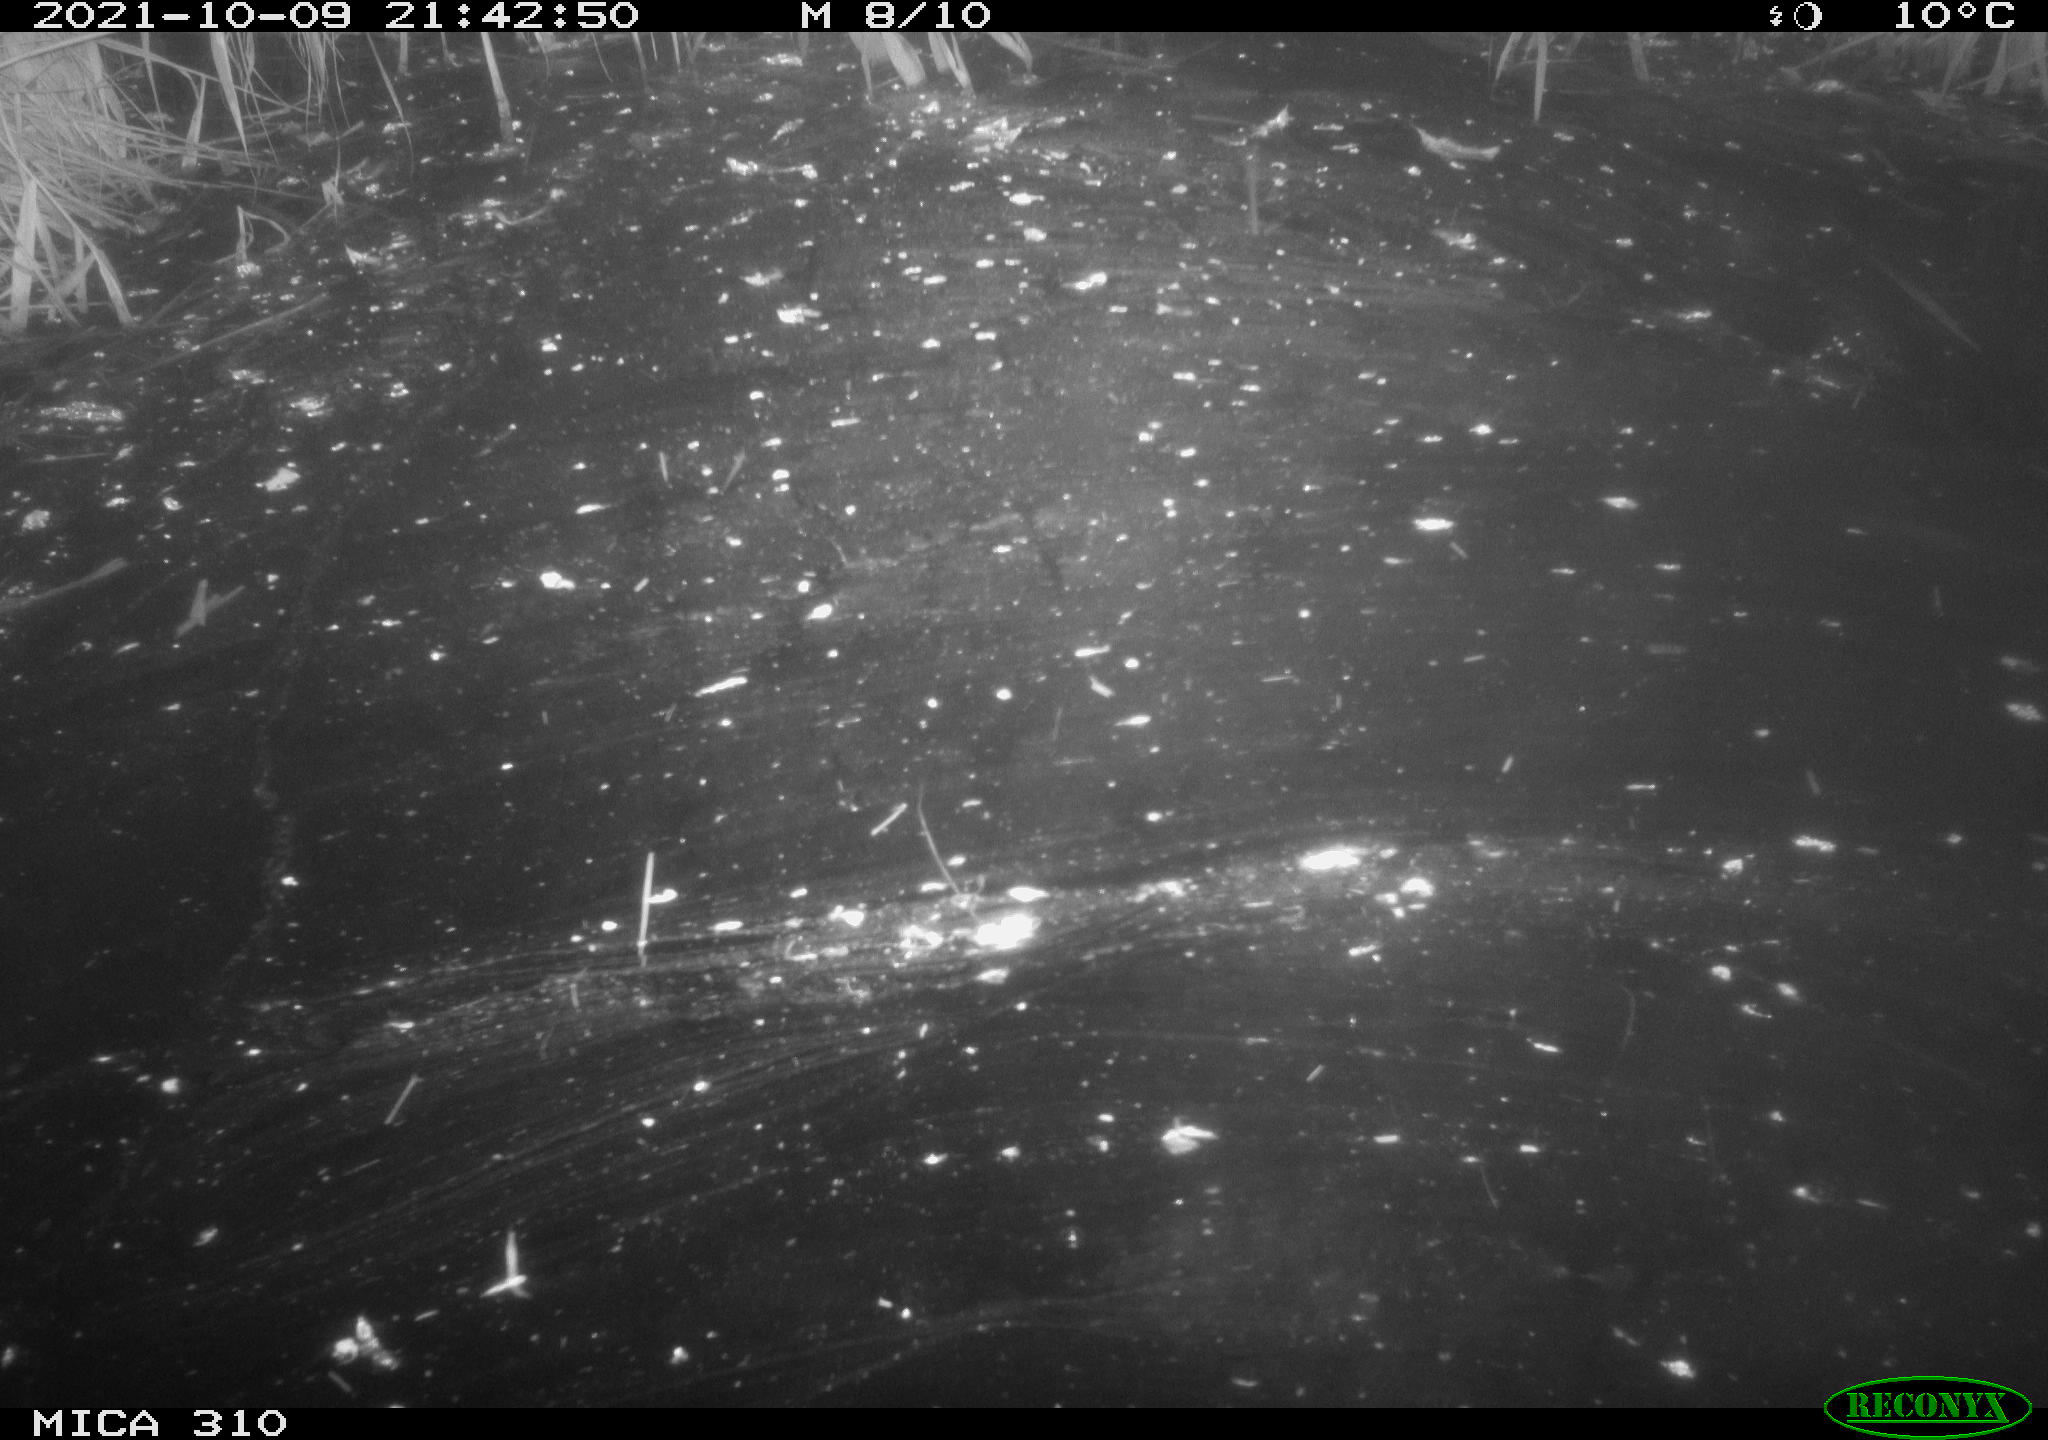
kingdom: Animalia
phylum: Chordata
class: Mammalia
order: Rodentia
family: Muridae
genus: Rattus
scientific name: Rattus norvegicus
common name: Brown rat
